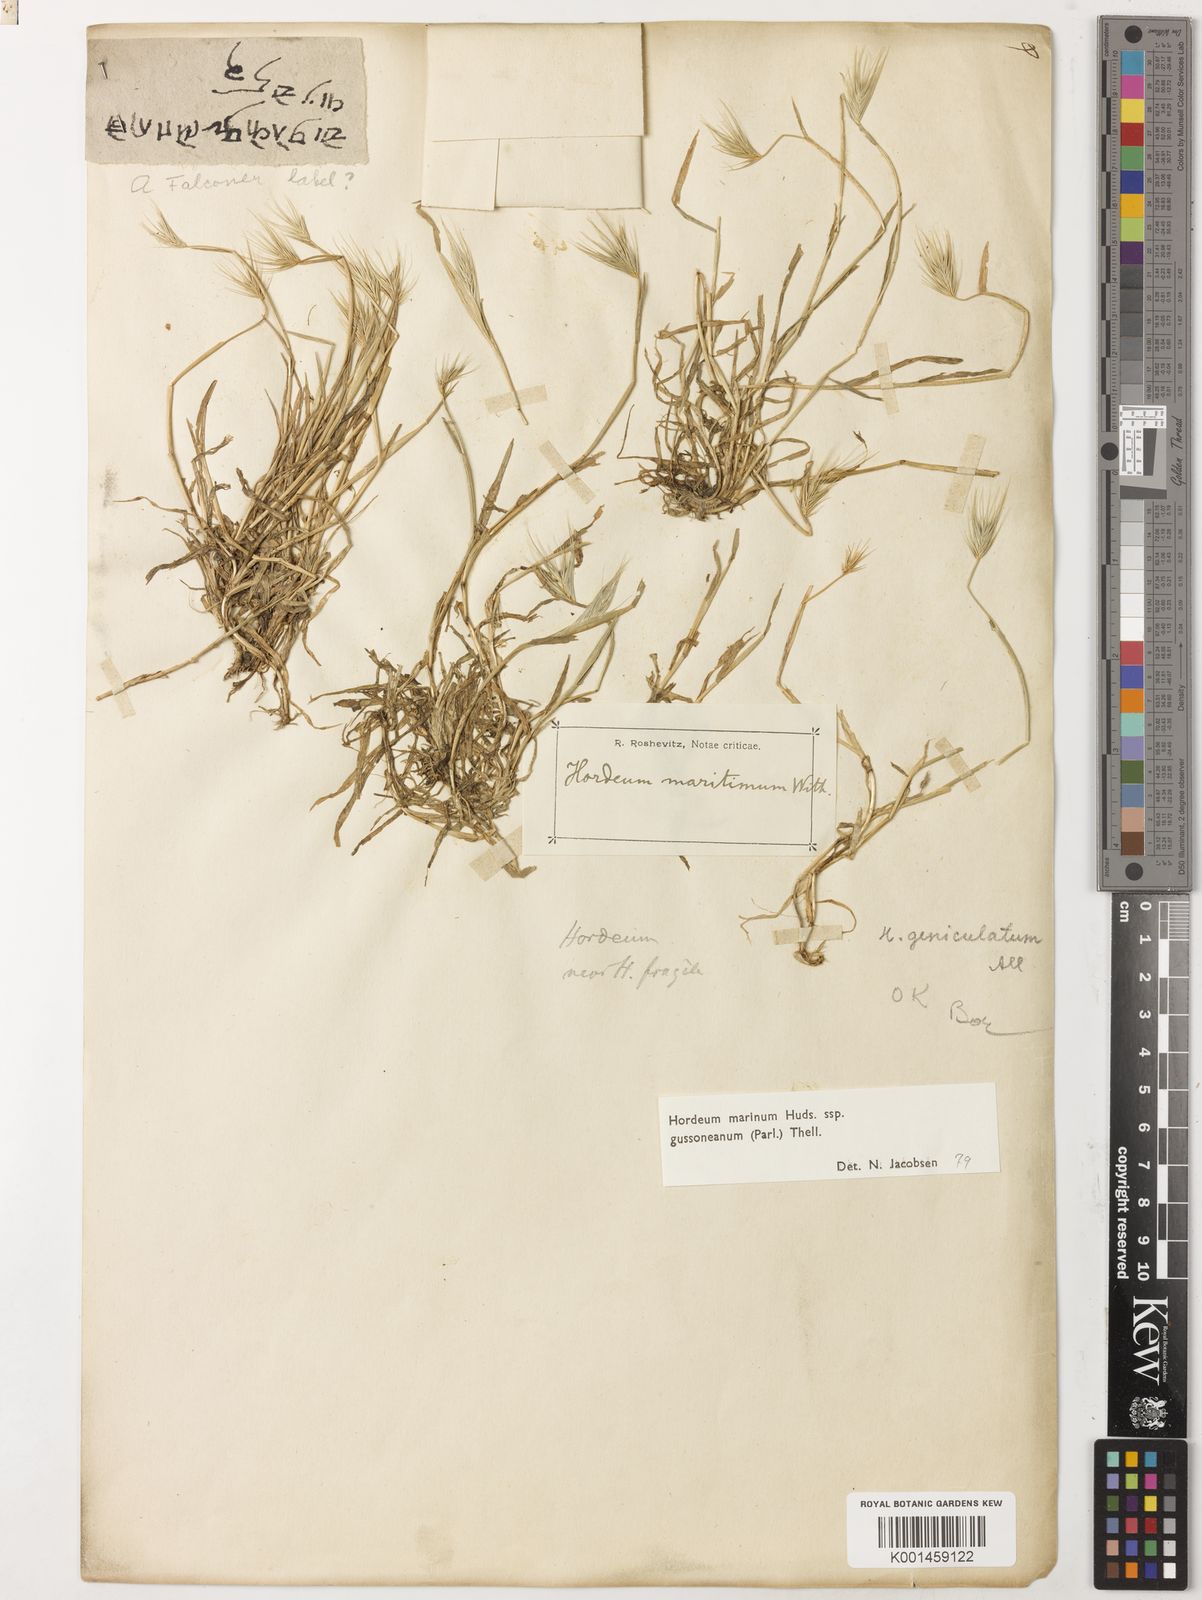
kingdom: Plantae
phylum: Tracheophyta
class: Liliopsida
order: Poales
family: Poaceae
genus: Hordeum
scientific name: Hordeum marinum
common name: Sea barley
